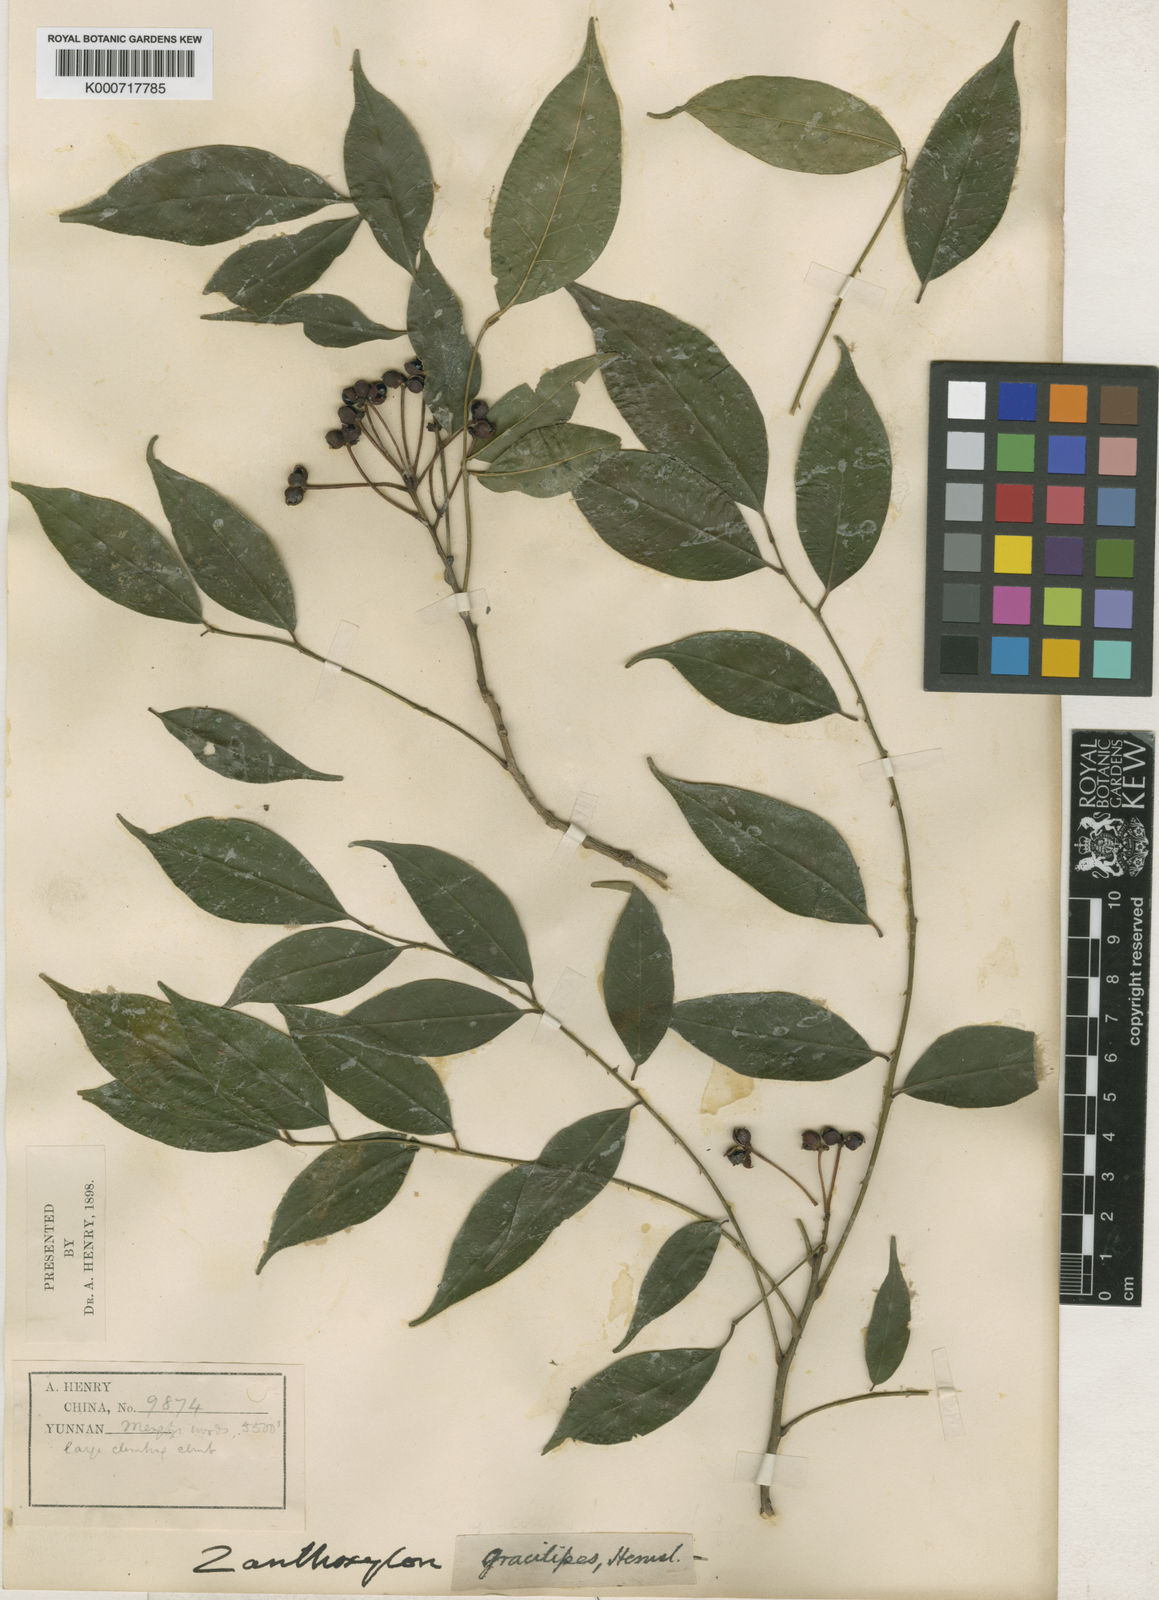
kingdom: Plantae
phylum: Tracheophyta
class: Magnoliopsida
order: Sapindales
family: Rutaceae
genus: Zanthoxylum
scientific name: Zanthoxylum stenophyllum
